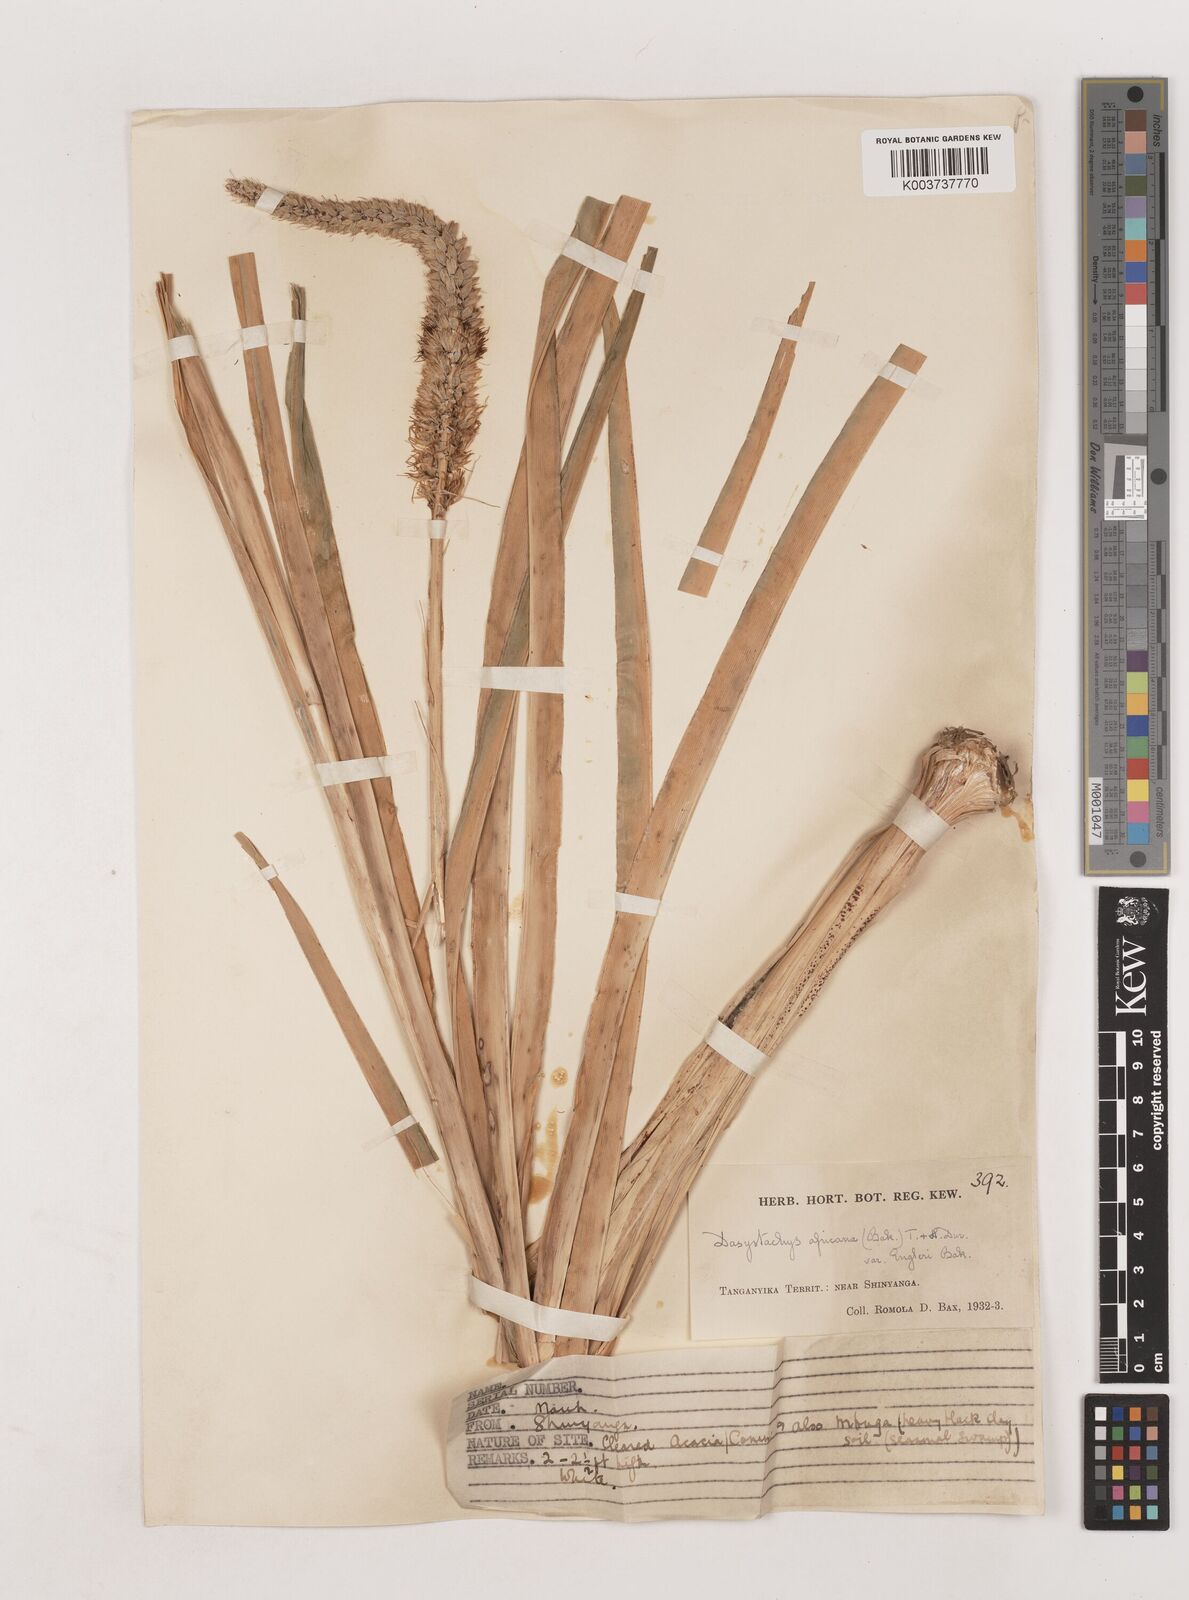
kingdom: Plantae
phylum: Tracheophyta
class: Liliopsida
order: Asparagales
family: Asparagaceae
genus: Chlorophytum
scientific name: Chlorophytum colubrinum
